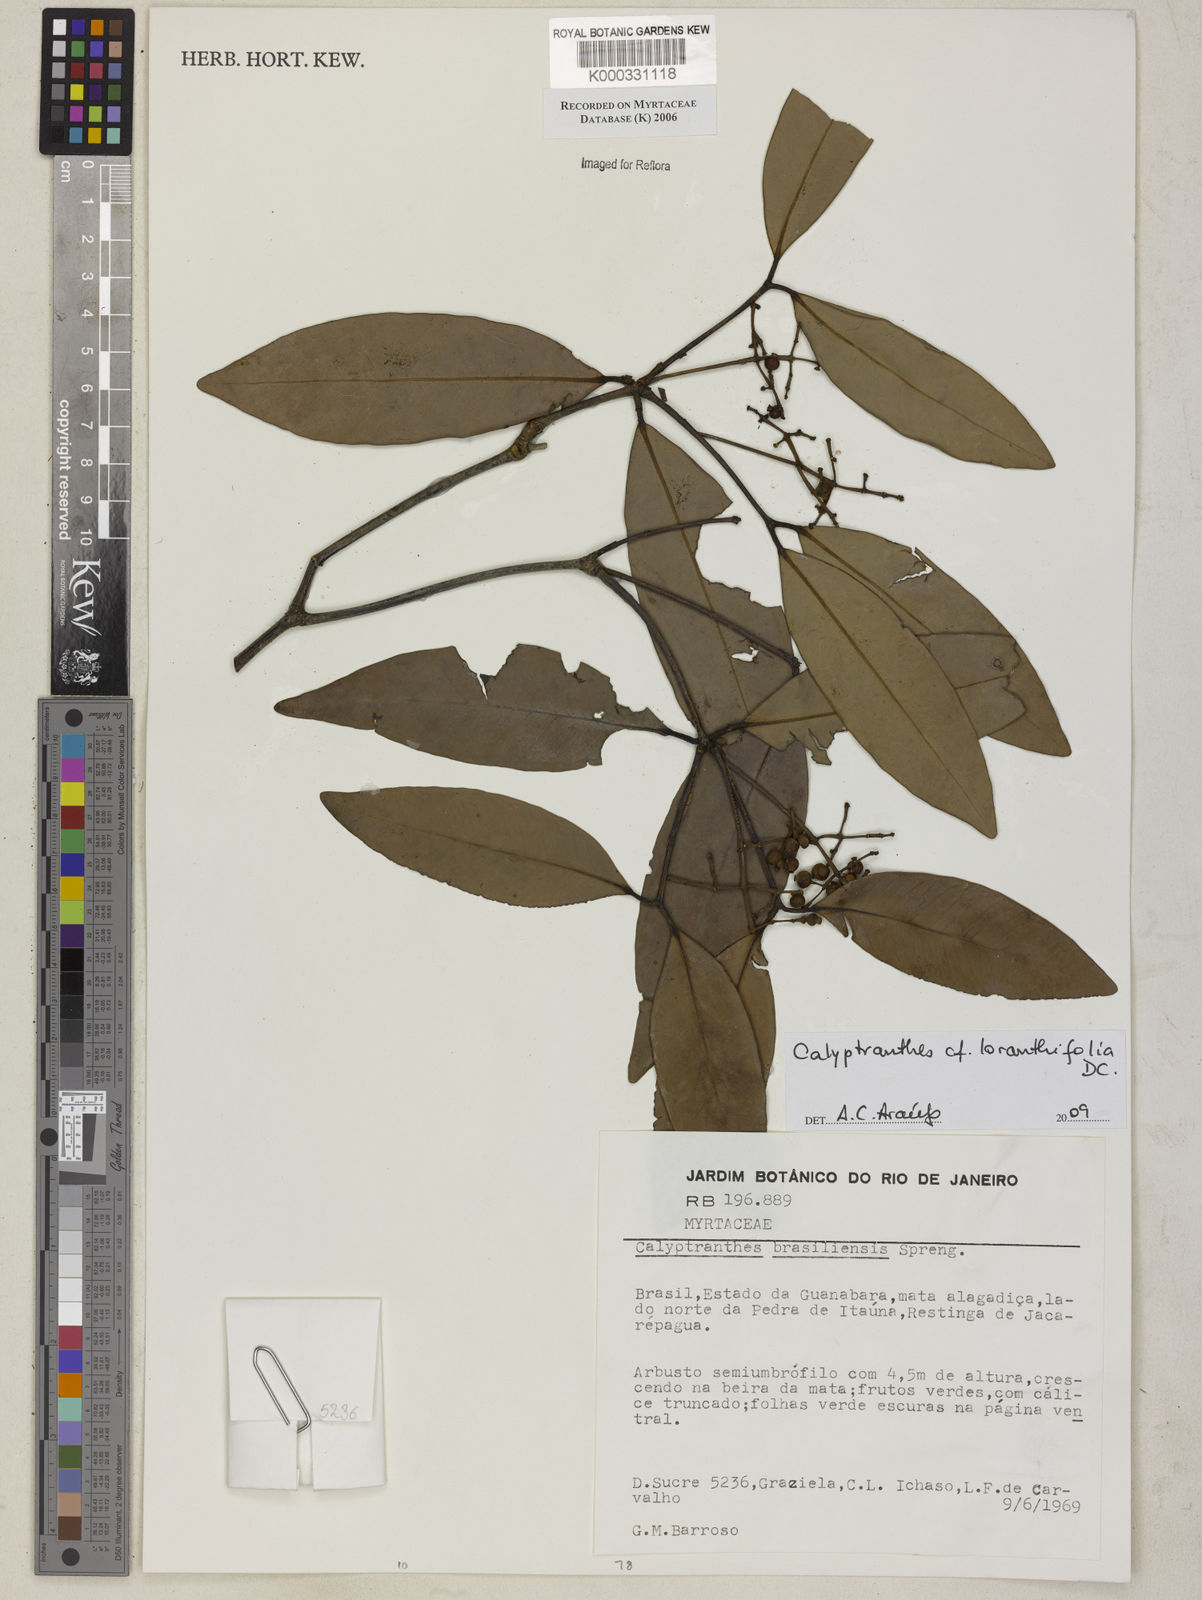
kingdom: Plantae
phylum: Tracheophyta
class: Magnoliopsida
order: Myrtales
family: Myrtaceae
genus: Myrcia
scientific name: Myrcia neobrasiliensis
